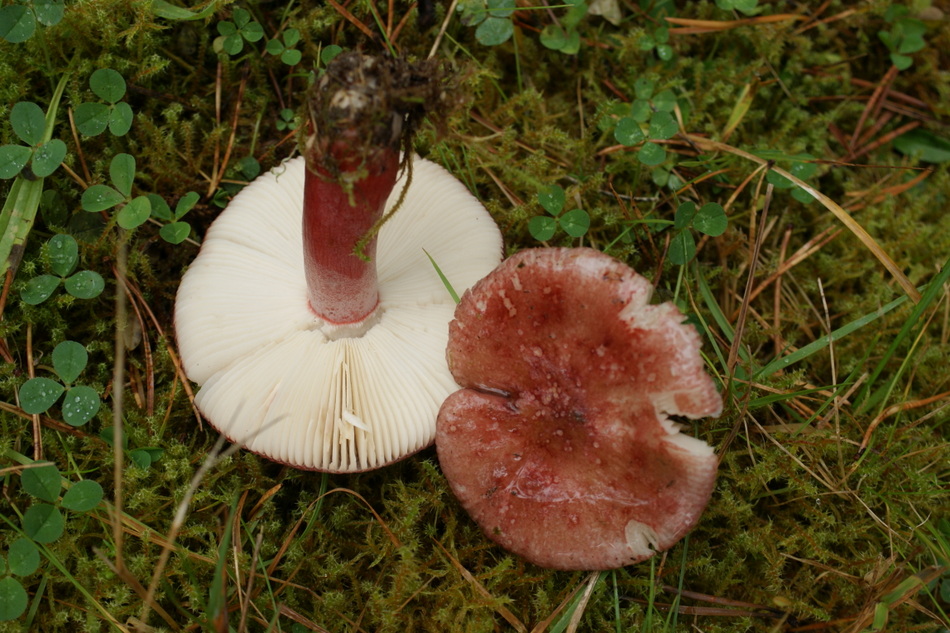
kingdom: Fungi
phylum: Basidiomycota
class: Agaricomycetes
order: Russulales
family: Russulaceae
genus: Russula
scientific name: Russula queletii
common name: Quélets skørhat
